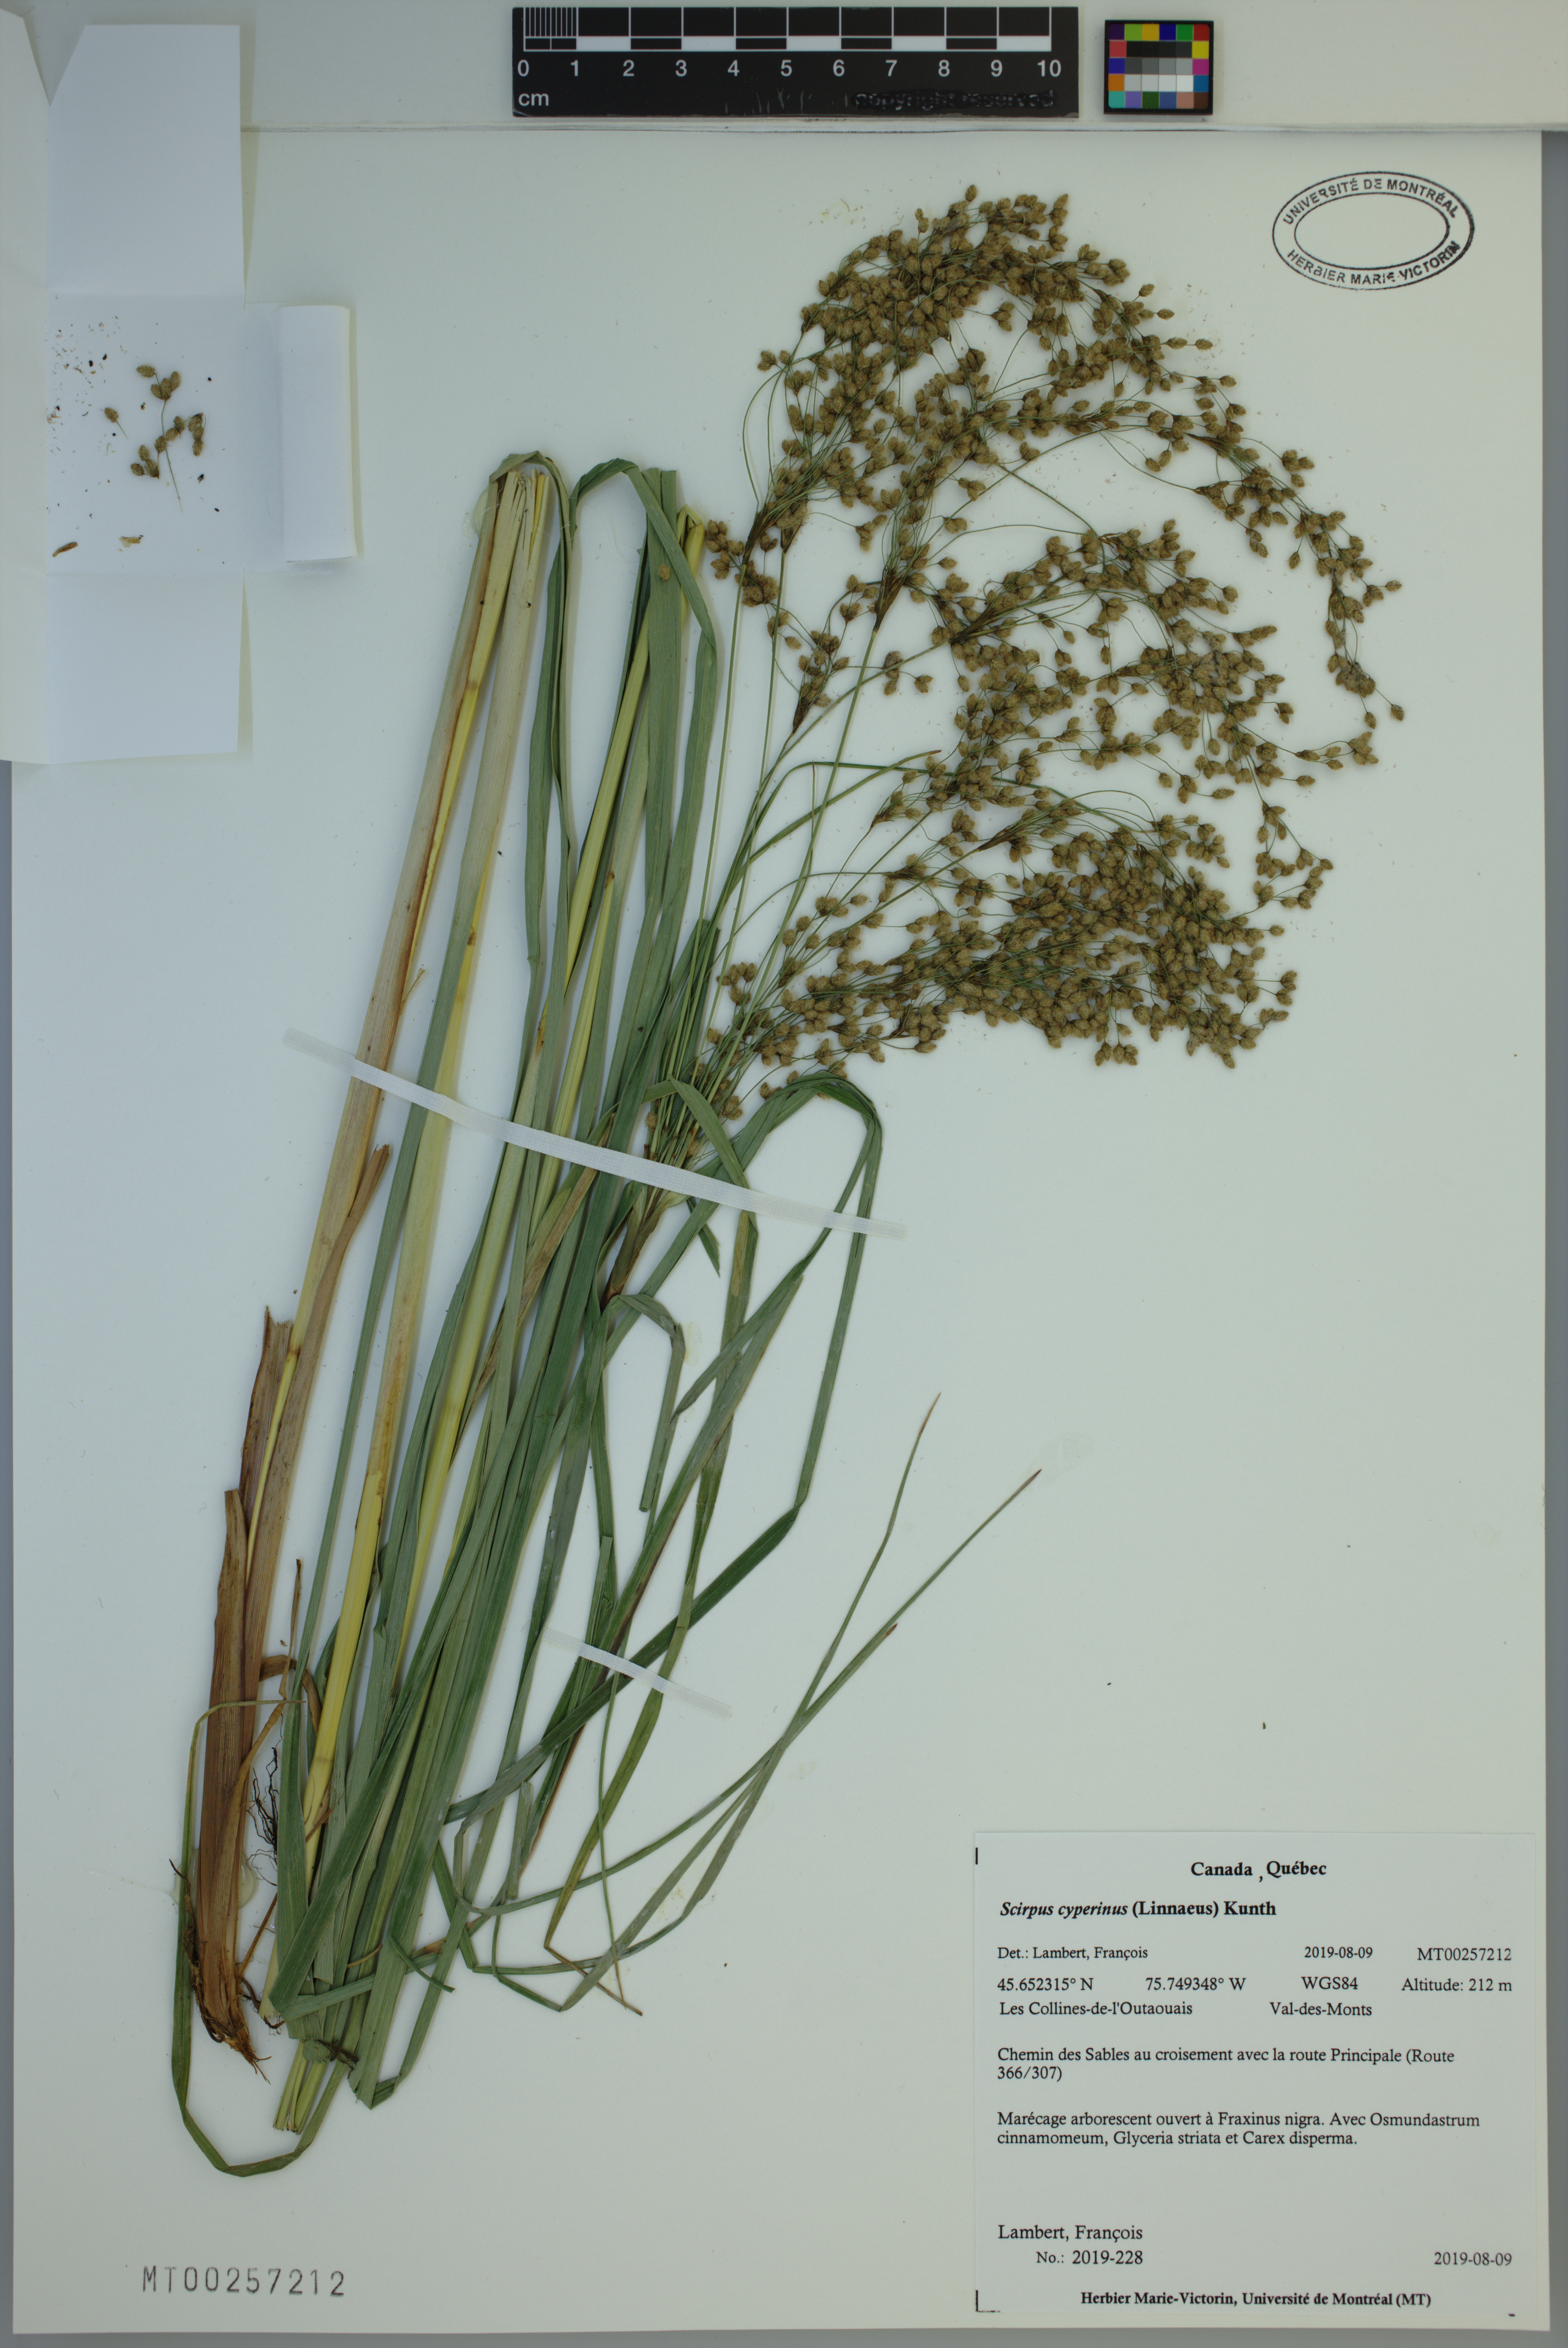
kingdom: Plantae
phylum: Tracheophyta
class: Liliopsida
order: Poales
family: Cyperaceae
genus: Scirpus
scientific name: Scirpus cyperinus
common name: Black-sheathed bulrush
